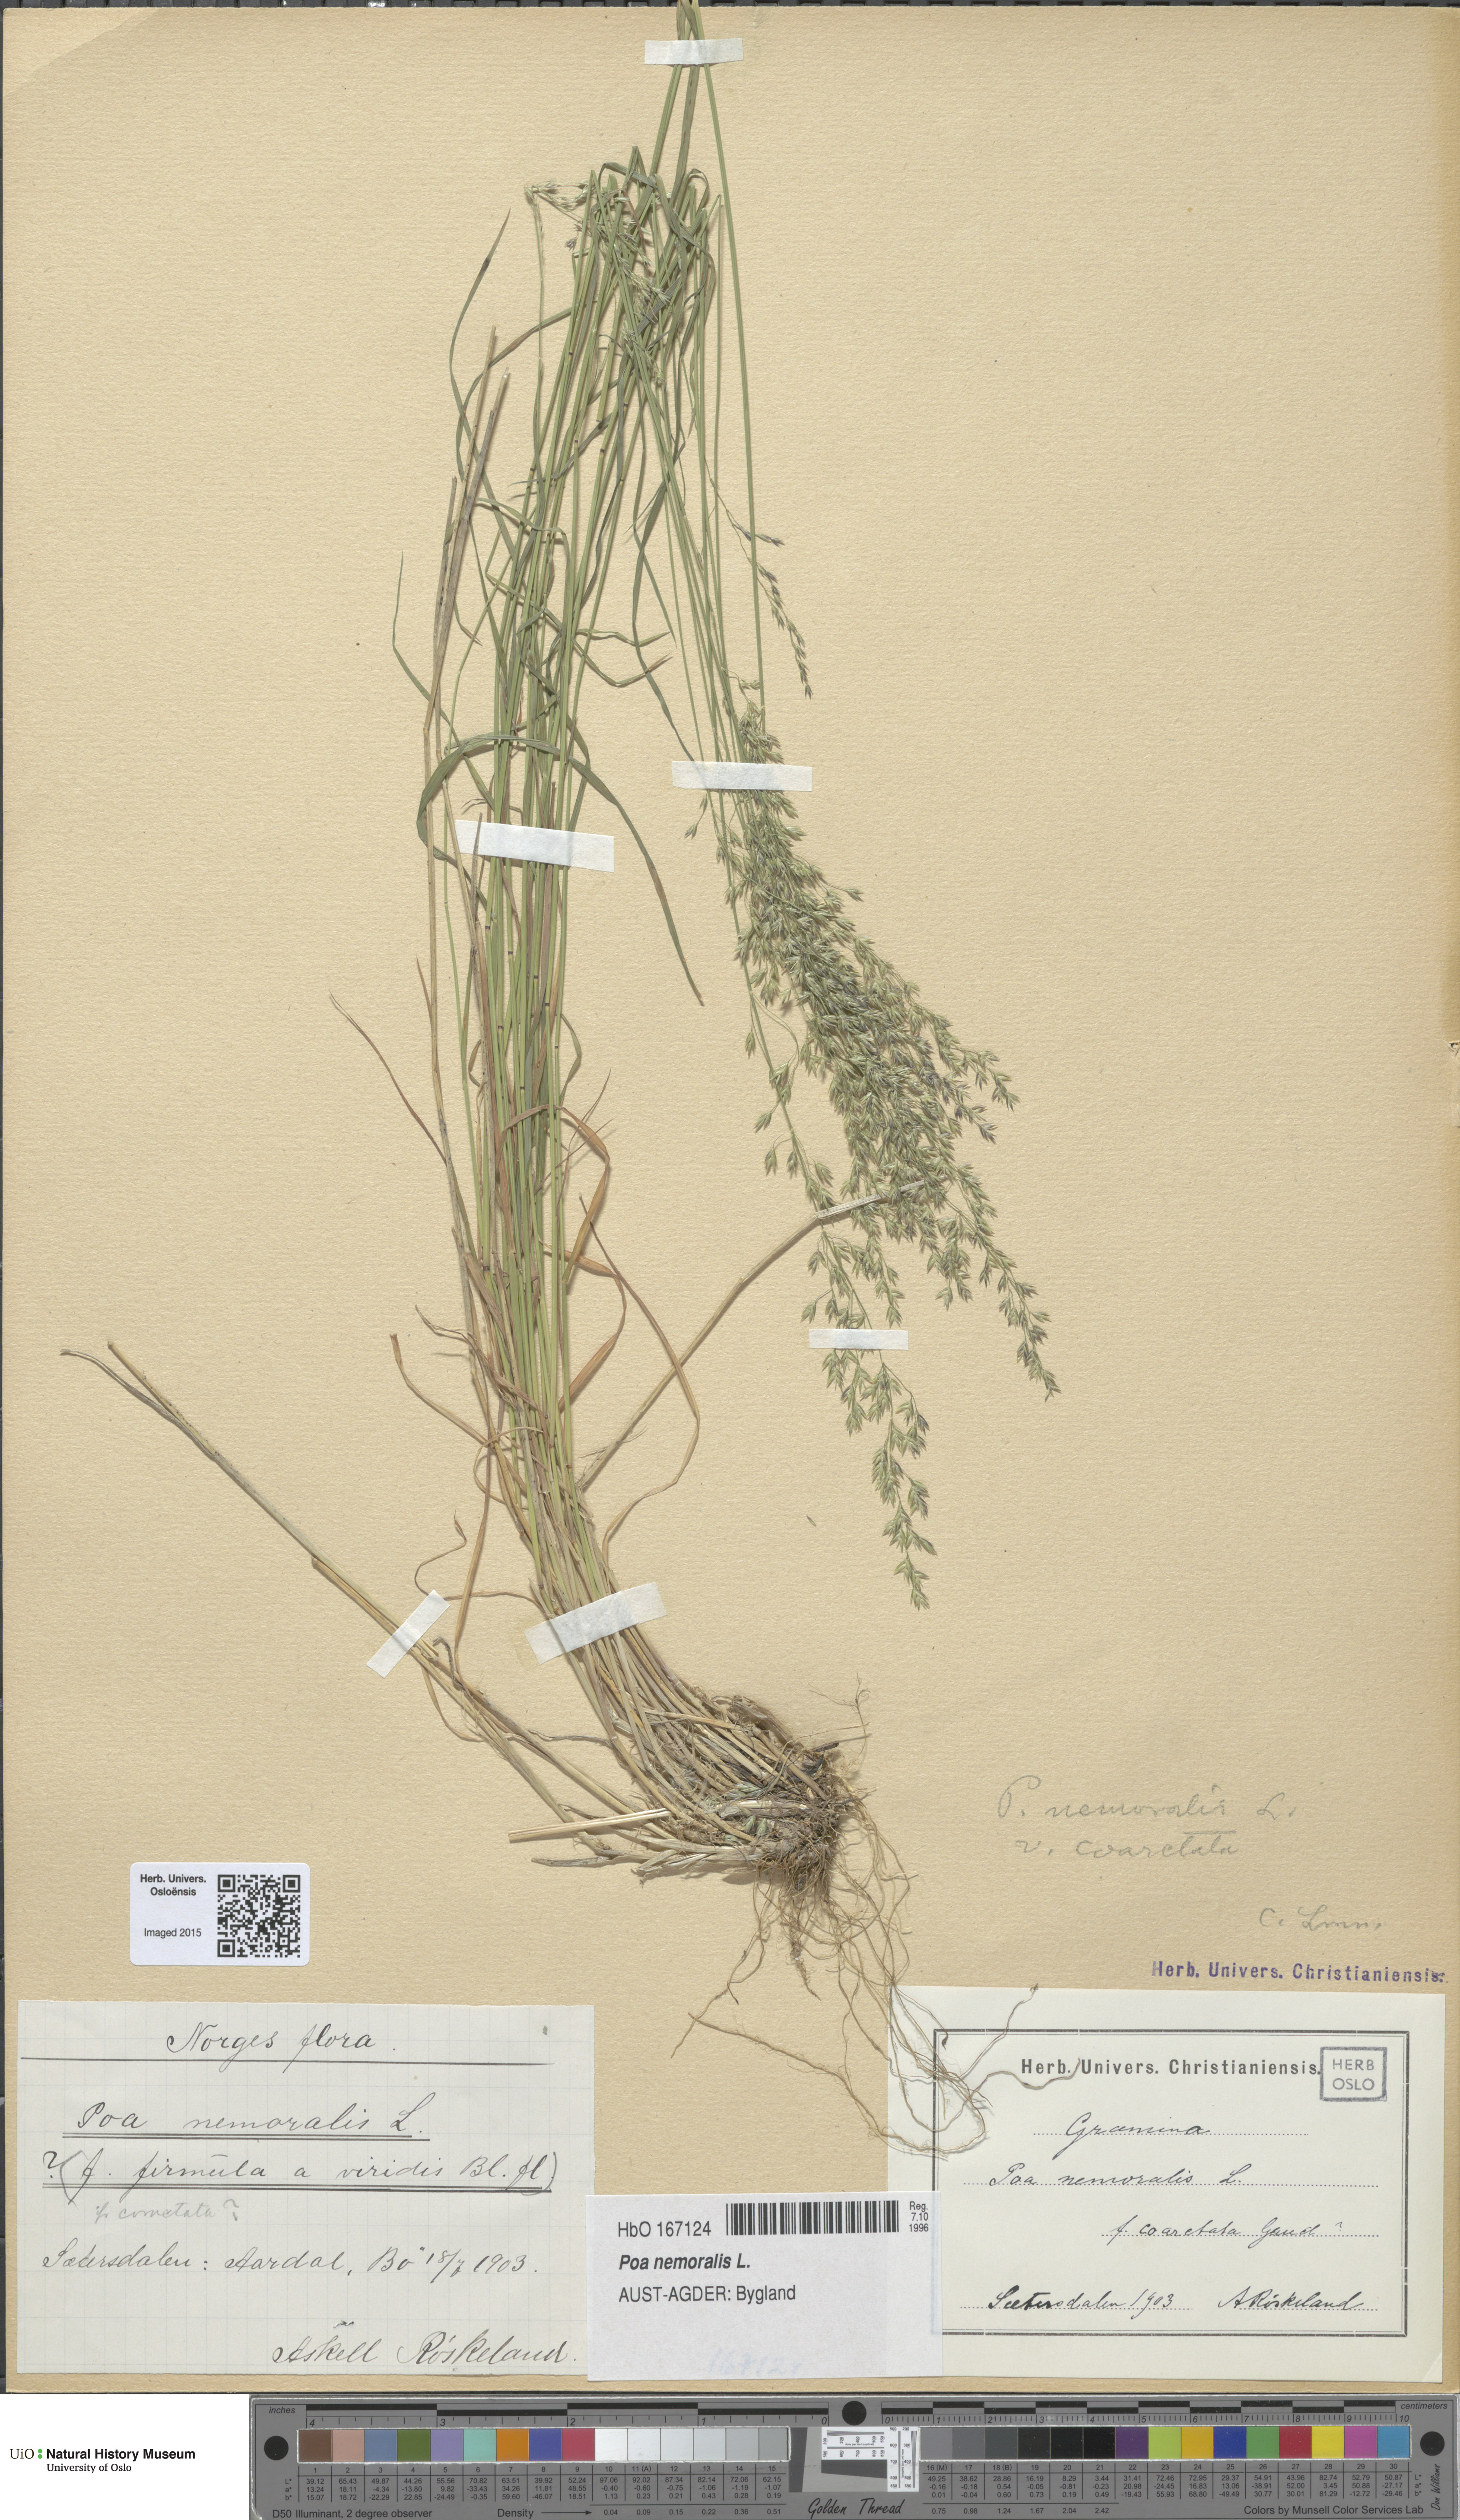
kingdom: Plantae
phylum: Tracheophyta
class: Liliopsida
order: Poales
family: Poaceae
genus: Poa
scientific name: Poa nemoralis
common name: Wood bluegrass
